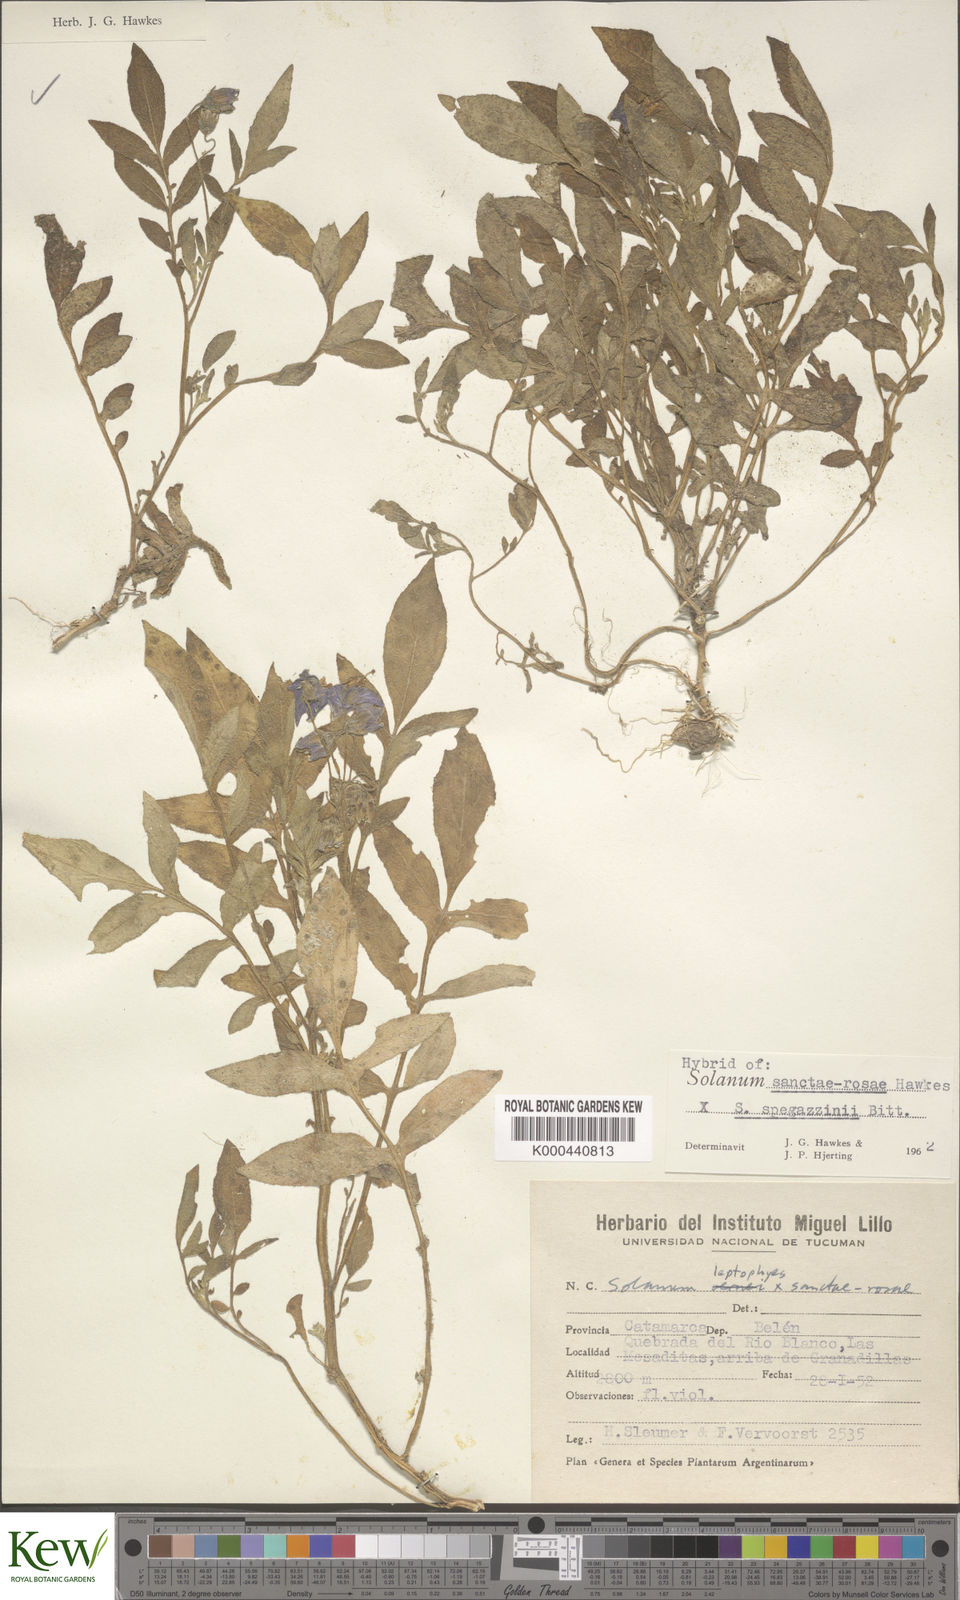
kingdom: Plantae
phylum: Tracheophyta
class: Magnoliopsida
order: Solanales
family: Solanaceae
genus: Solanum
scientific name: Solanum boliviense
